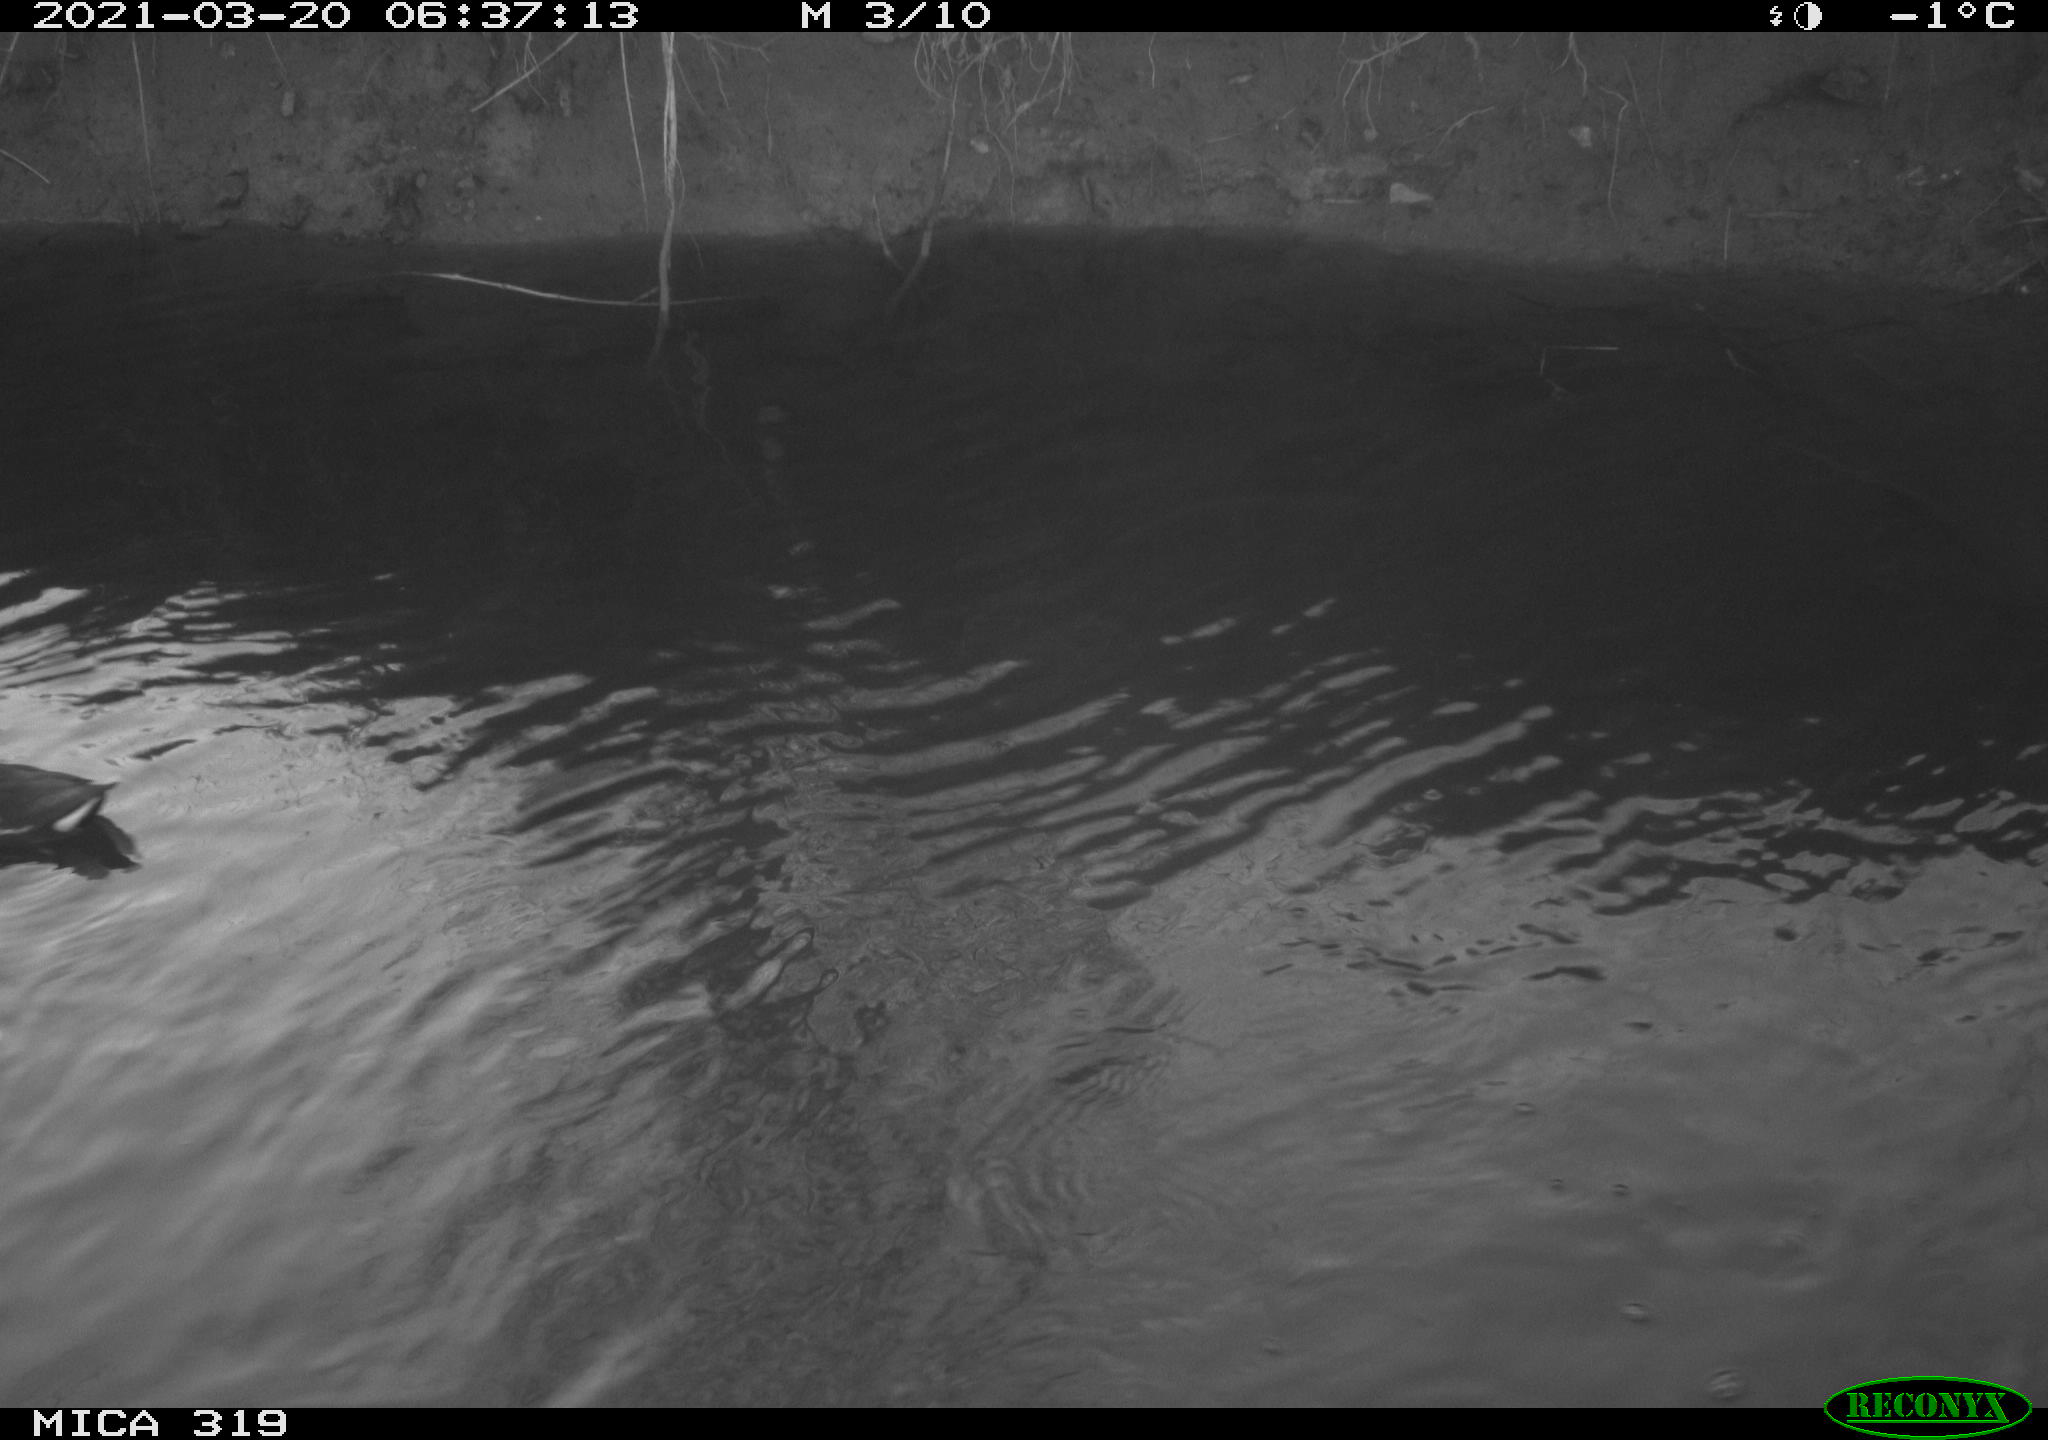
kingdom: Animalia
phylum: Chordata
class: Aves
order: Gruiformes
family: Rallidae
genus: Gallinula
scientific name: Gallinula chloropus
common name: Common moorhen
